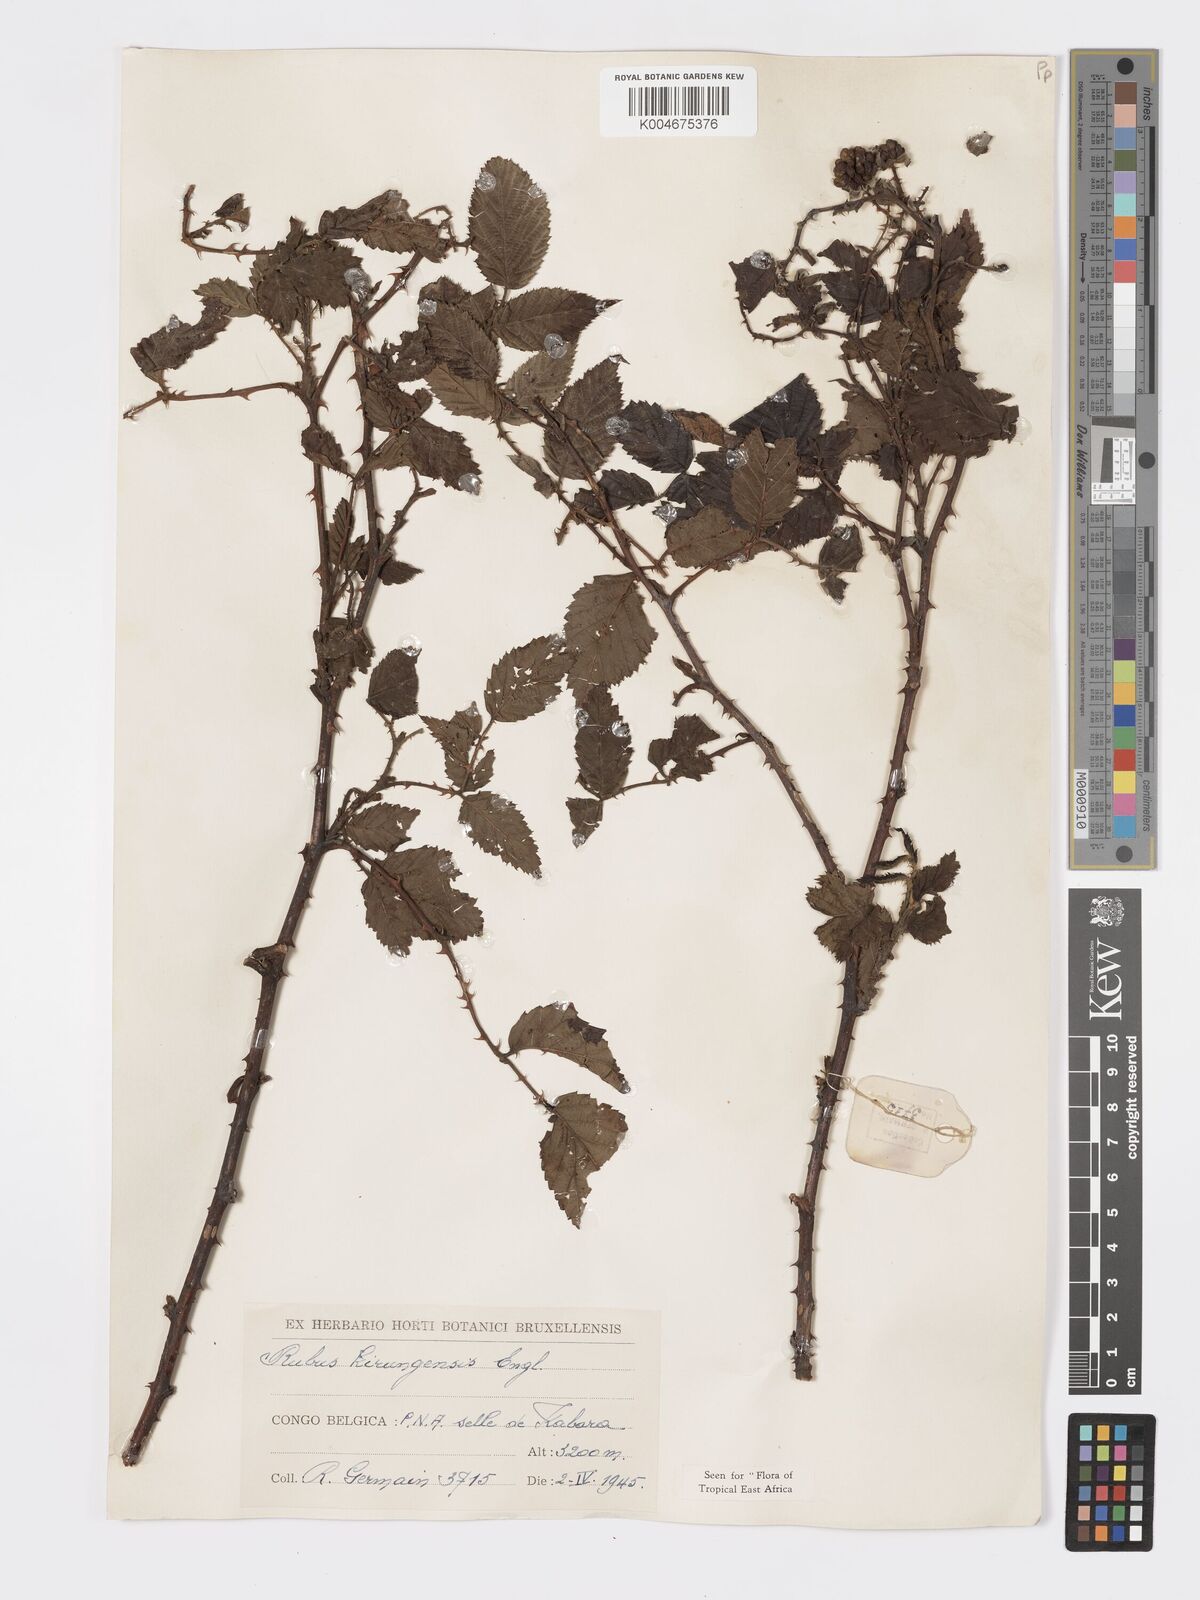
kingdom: Plantae
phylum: Tracheophyta
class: Magnoliopsida
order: Rosales
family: Rosaceae
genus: Rubus
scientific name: Rubus kirungensis
